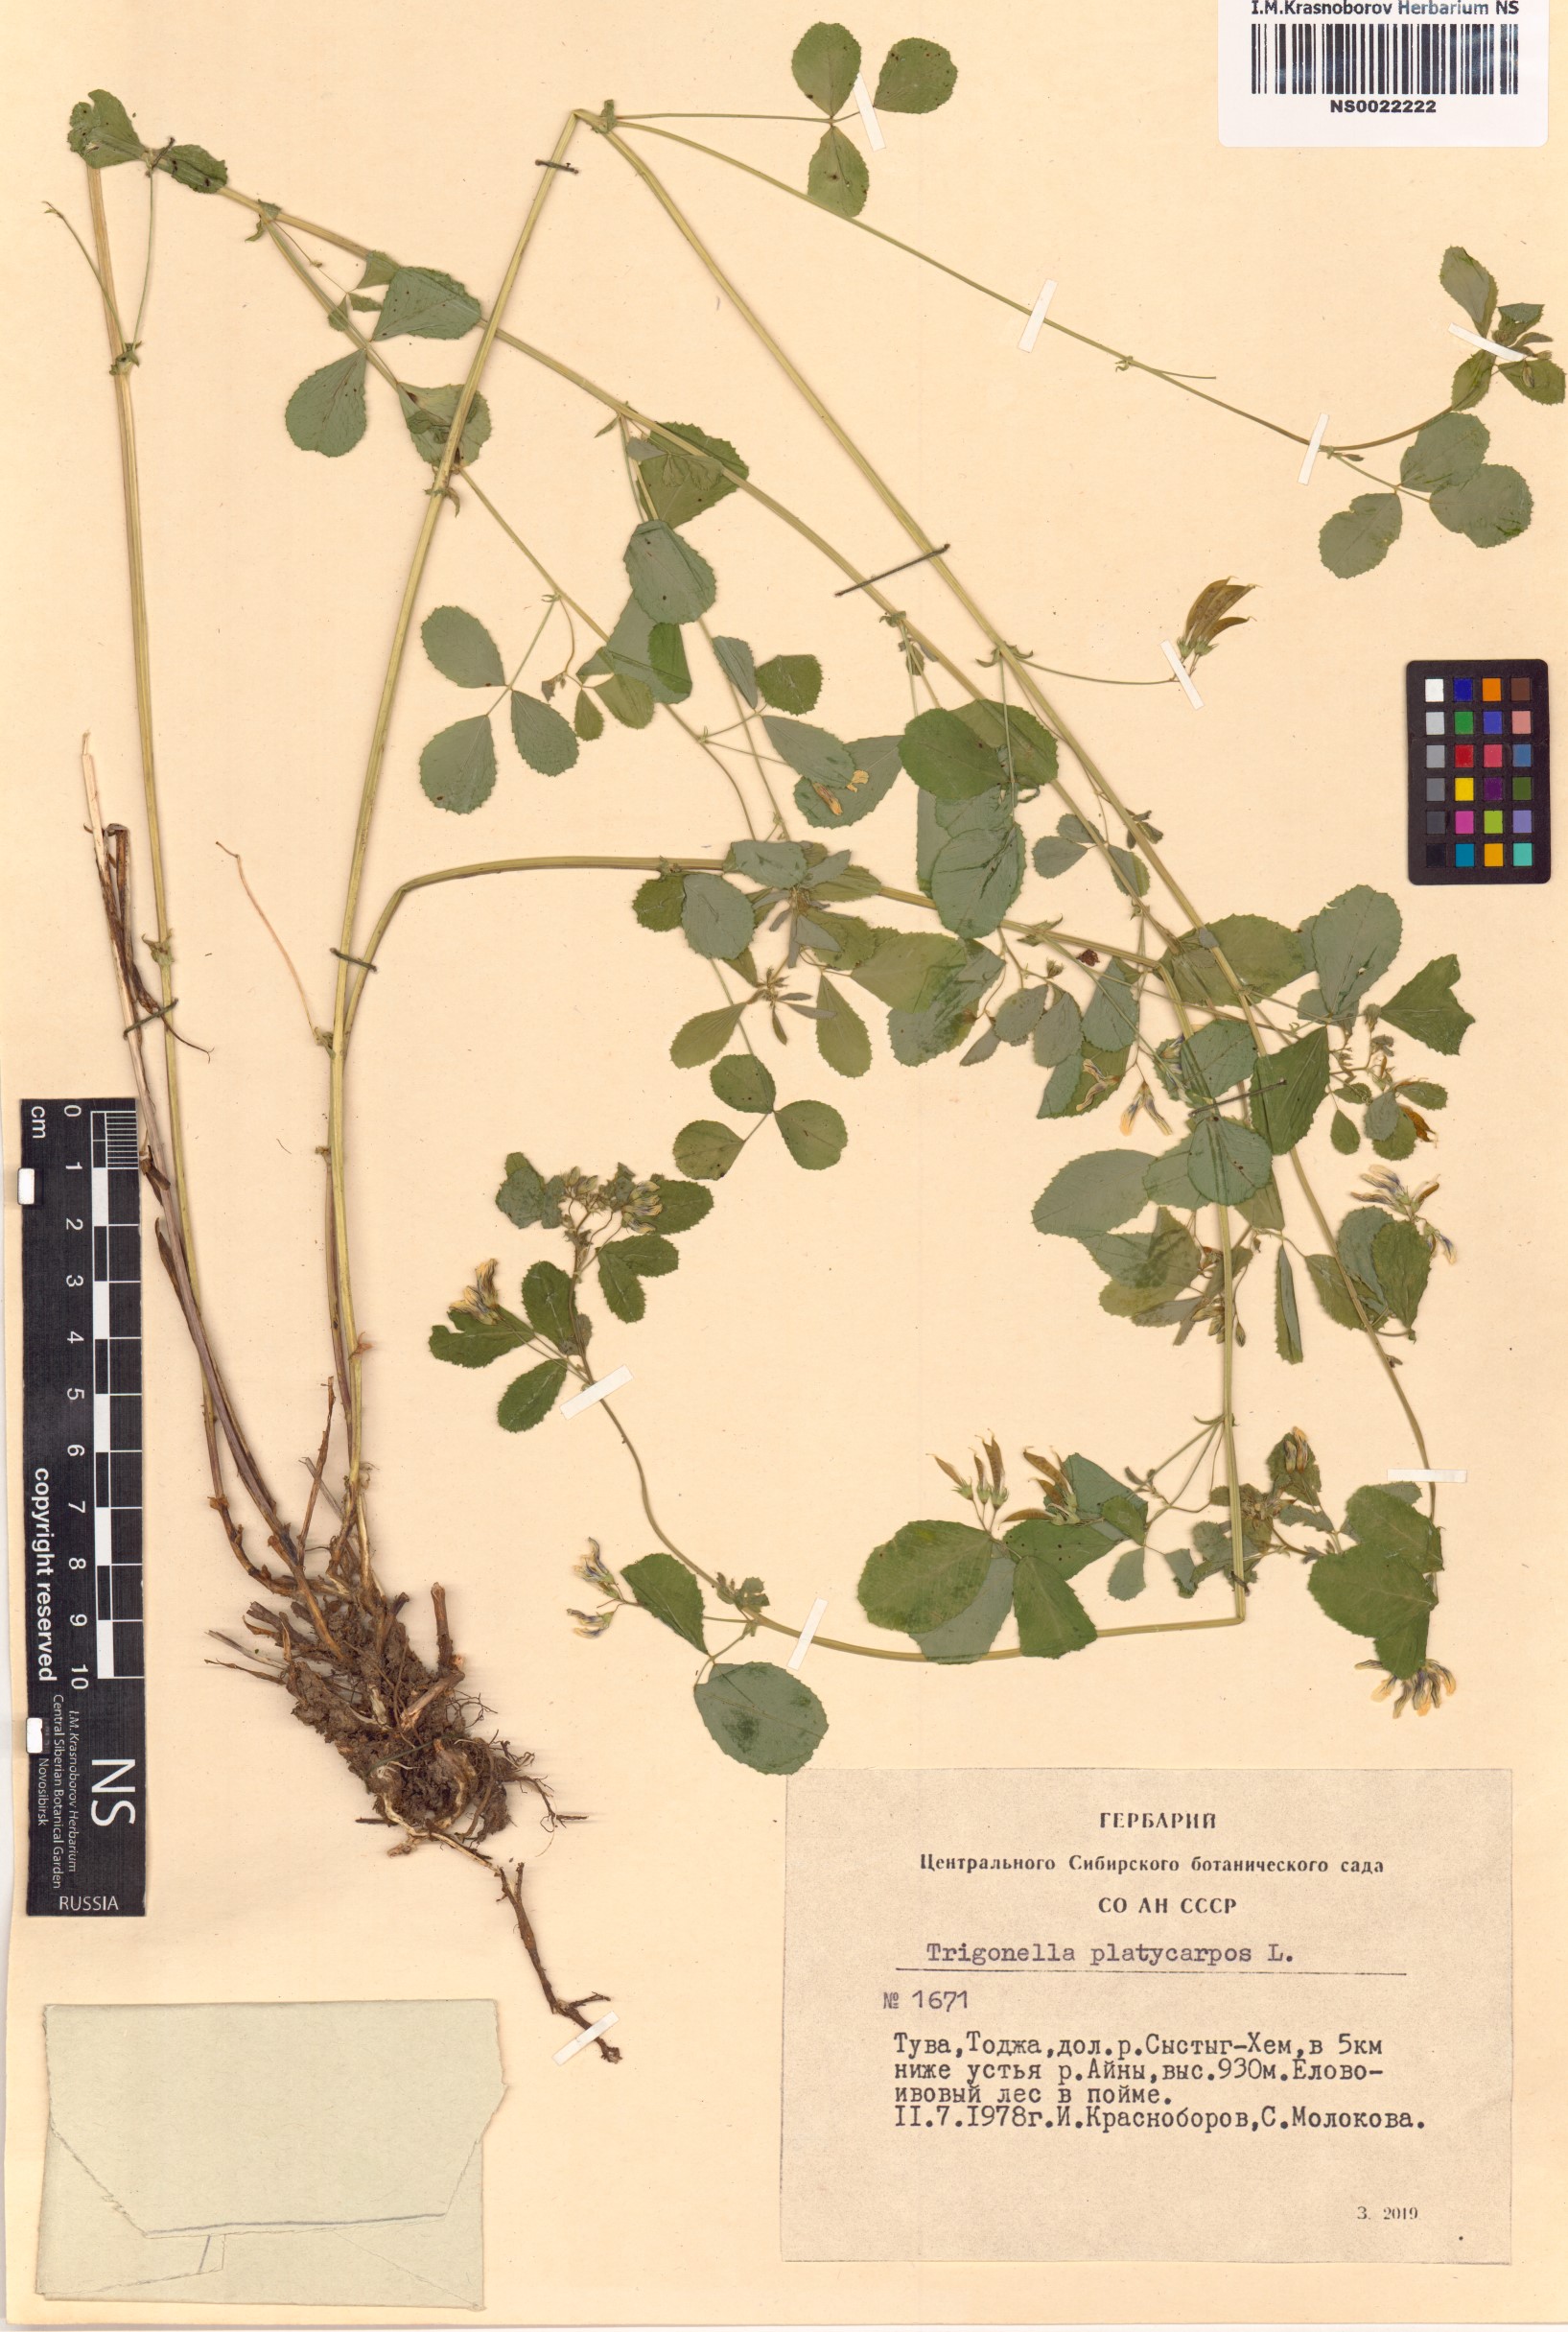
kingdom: Plantae
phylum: Tracheophyta
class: Magnoliopsida
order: Fabales
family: Fabaceae
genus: Medicago
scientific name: Medicago platycarpos
